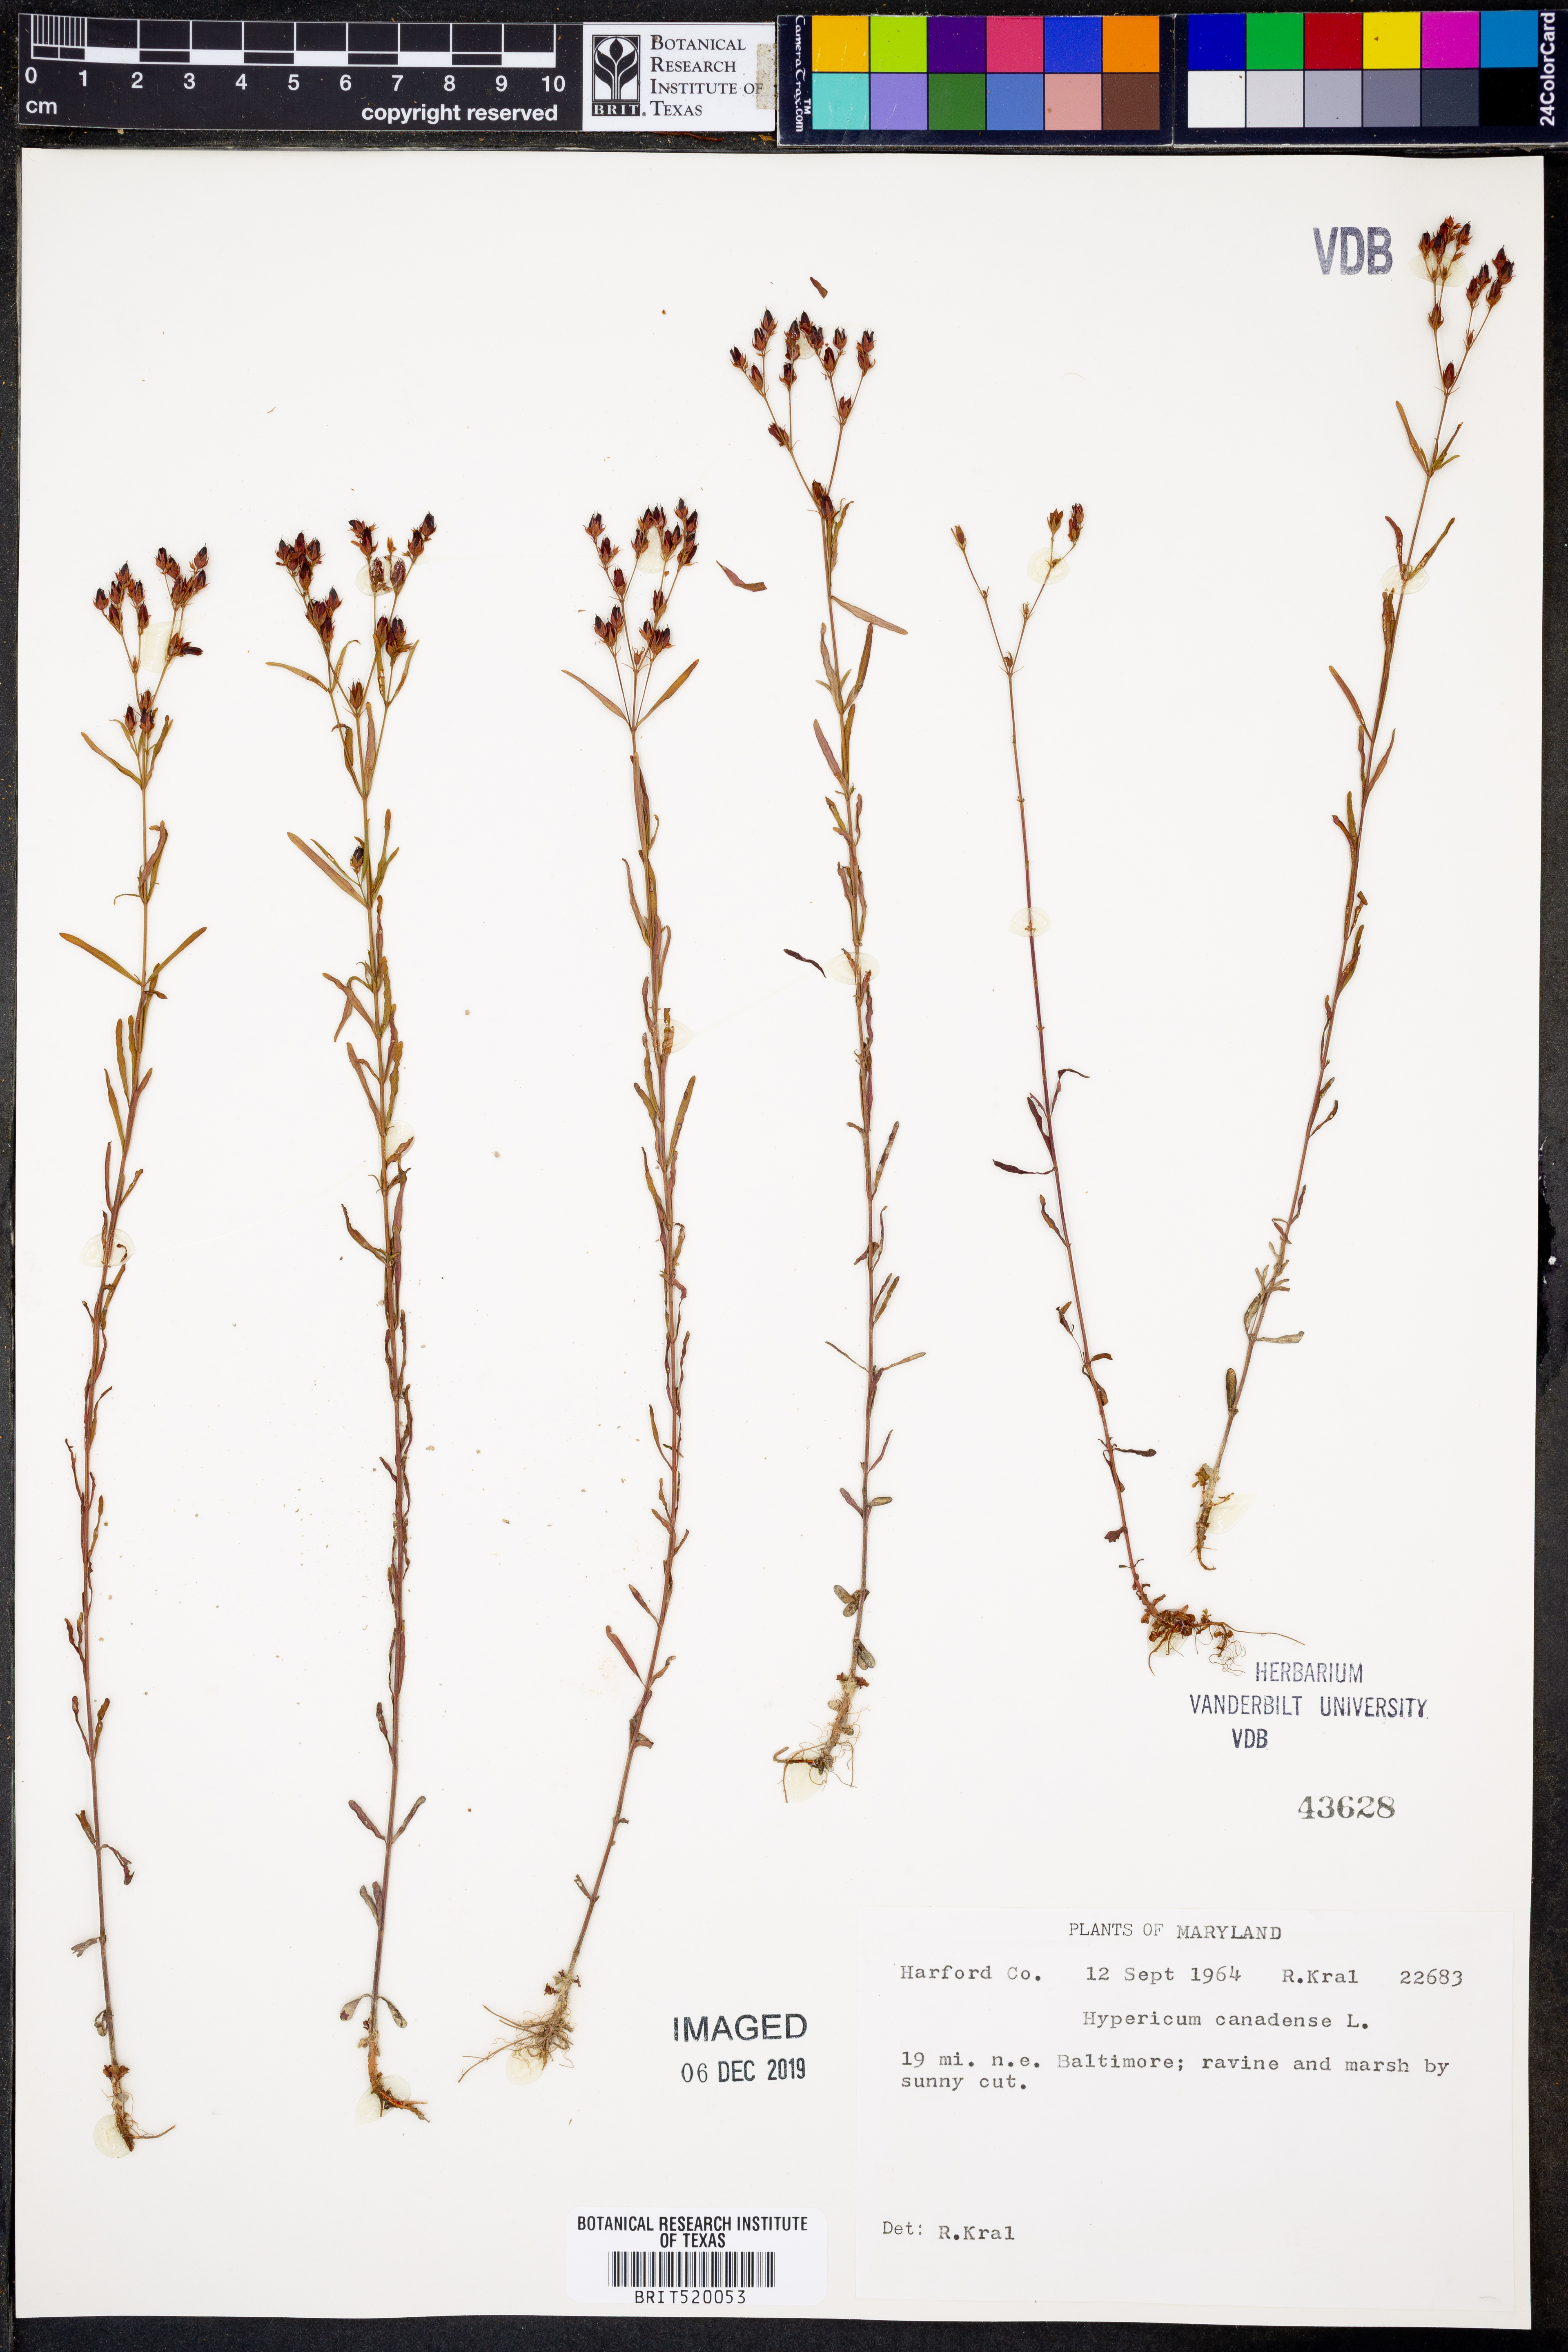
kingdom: Plantae
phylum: Tracheophyta
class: Magnoliopsida
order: Malpighiales
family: Hypericaceae
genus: Hypericum
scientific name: Hypericum canadense
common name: Irish st. john's-wort
